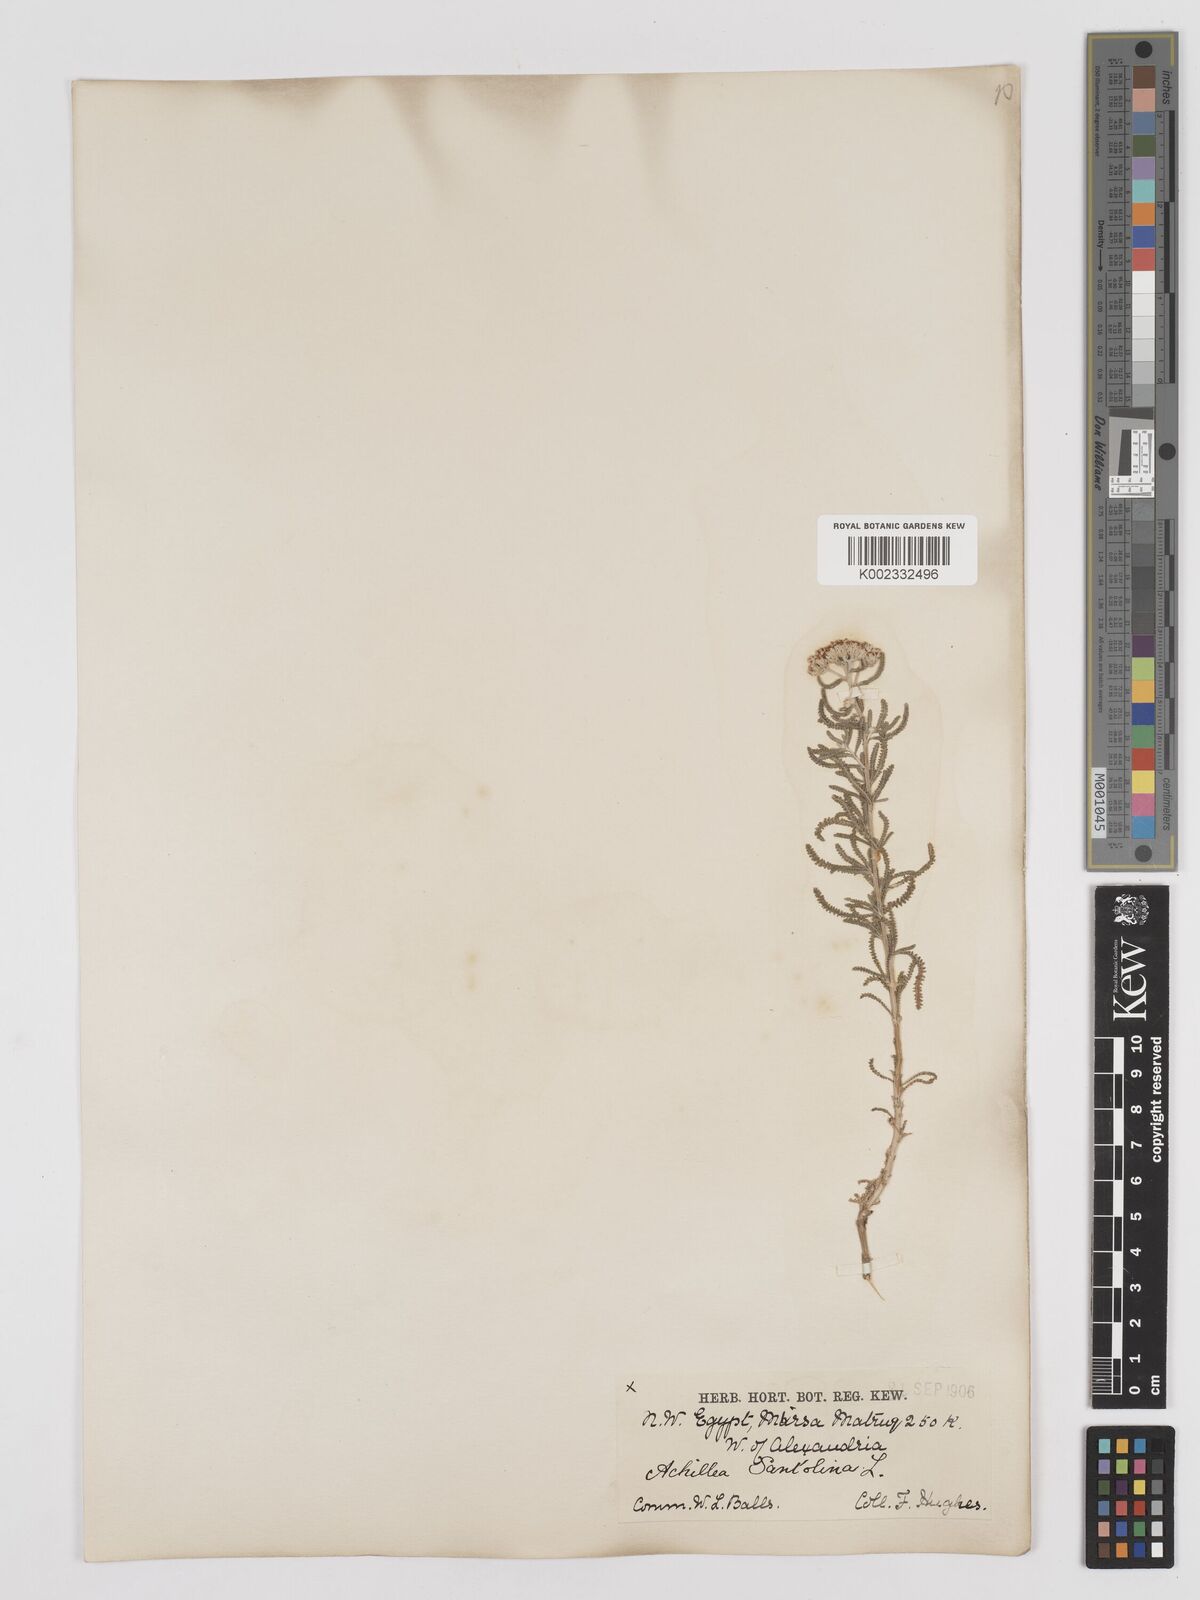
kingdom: Plantae
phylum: Tracheophyta
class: Magnoliopsida
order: Asterales
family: Asteraceae
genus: Achillea
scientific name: Achillea tenuifolia
